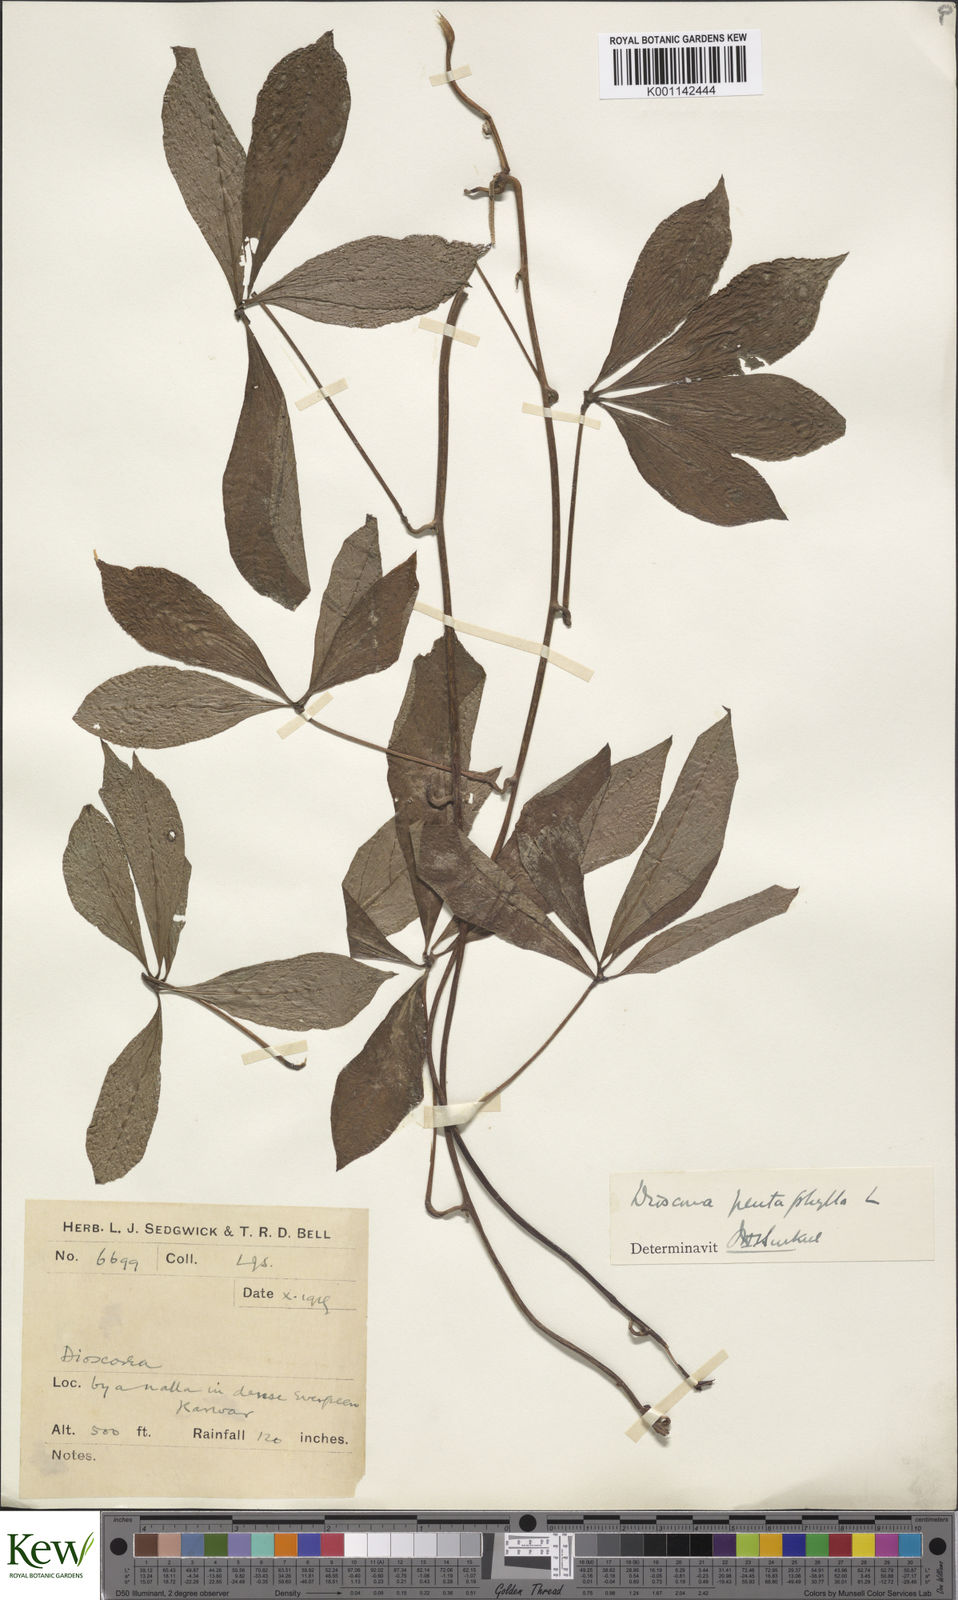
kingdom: Plantae
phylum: Tracheophyta
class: Liliopsida
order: Dioscoreales
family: Dioscoreaceae
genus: Dioscorea
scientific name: Dioscorea pentaphylla
